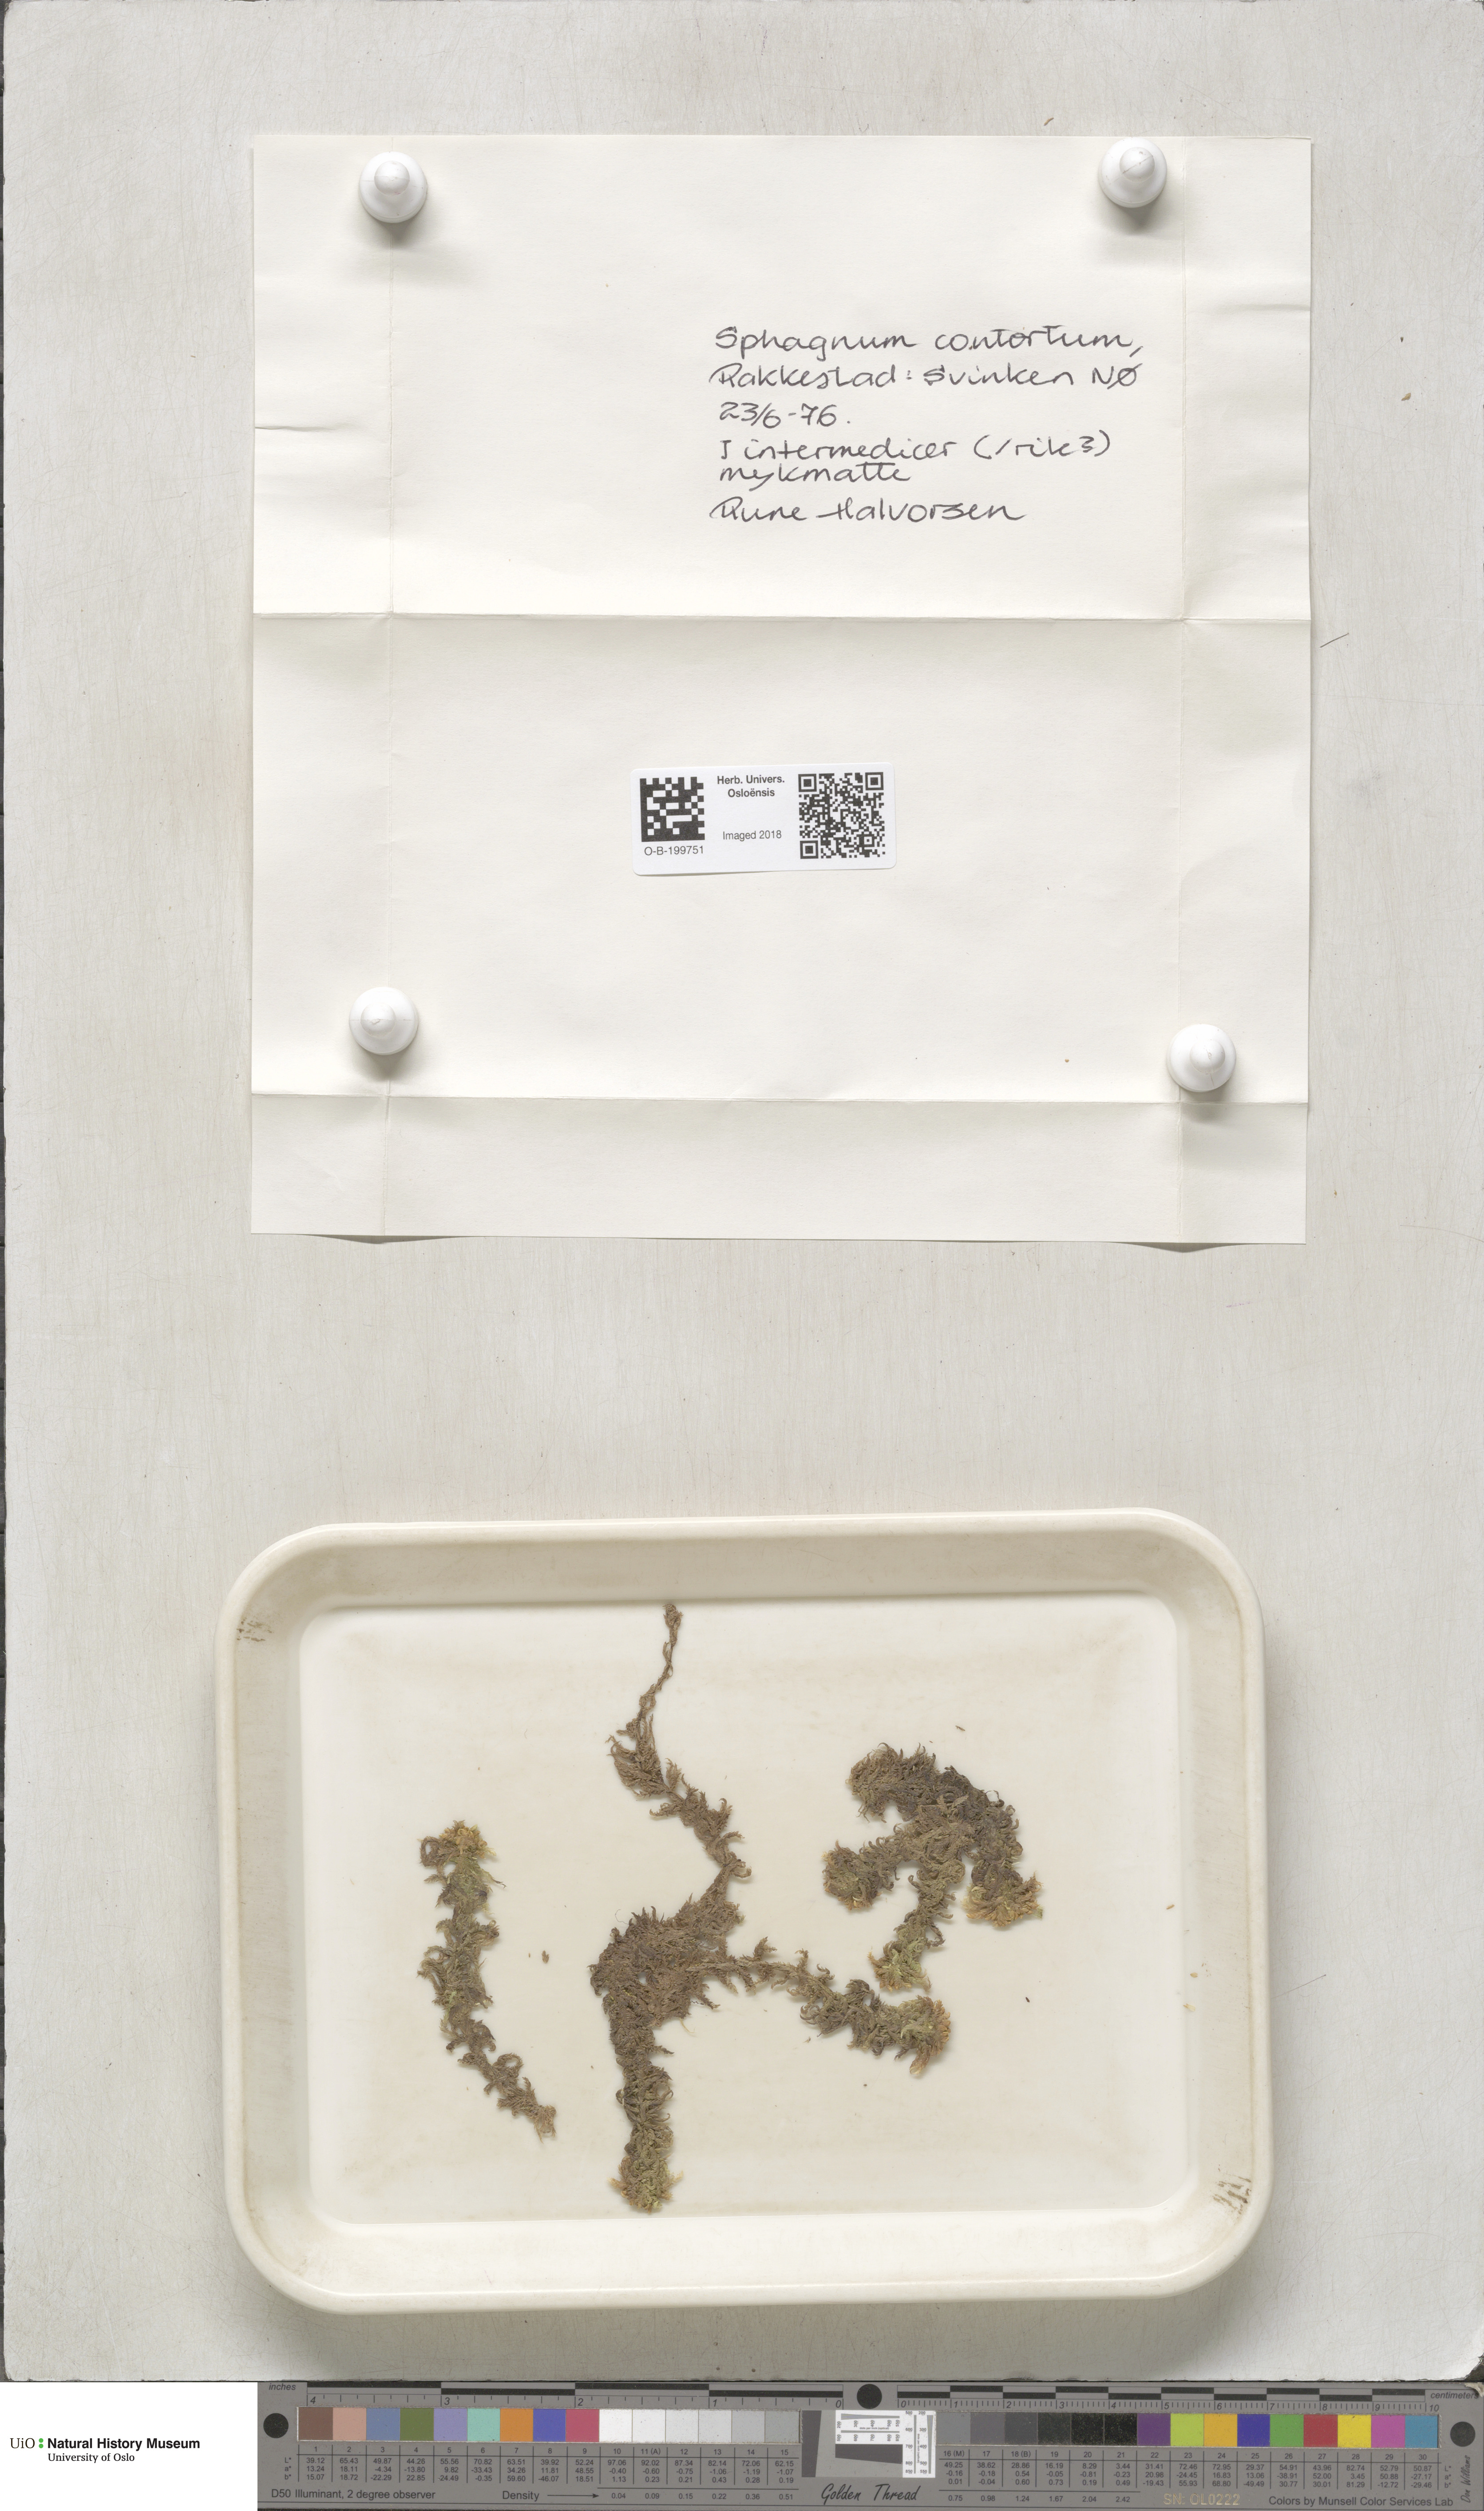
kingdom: Plantae
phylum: Bryophyta
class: Sphagnopsida
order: Sphagnales
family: Sphagnaceae
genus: Sphagnum
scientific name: Sphagnum contortum
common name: Twisted peat moss
